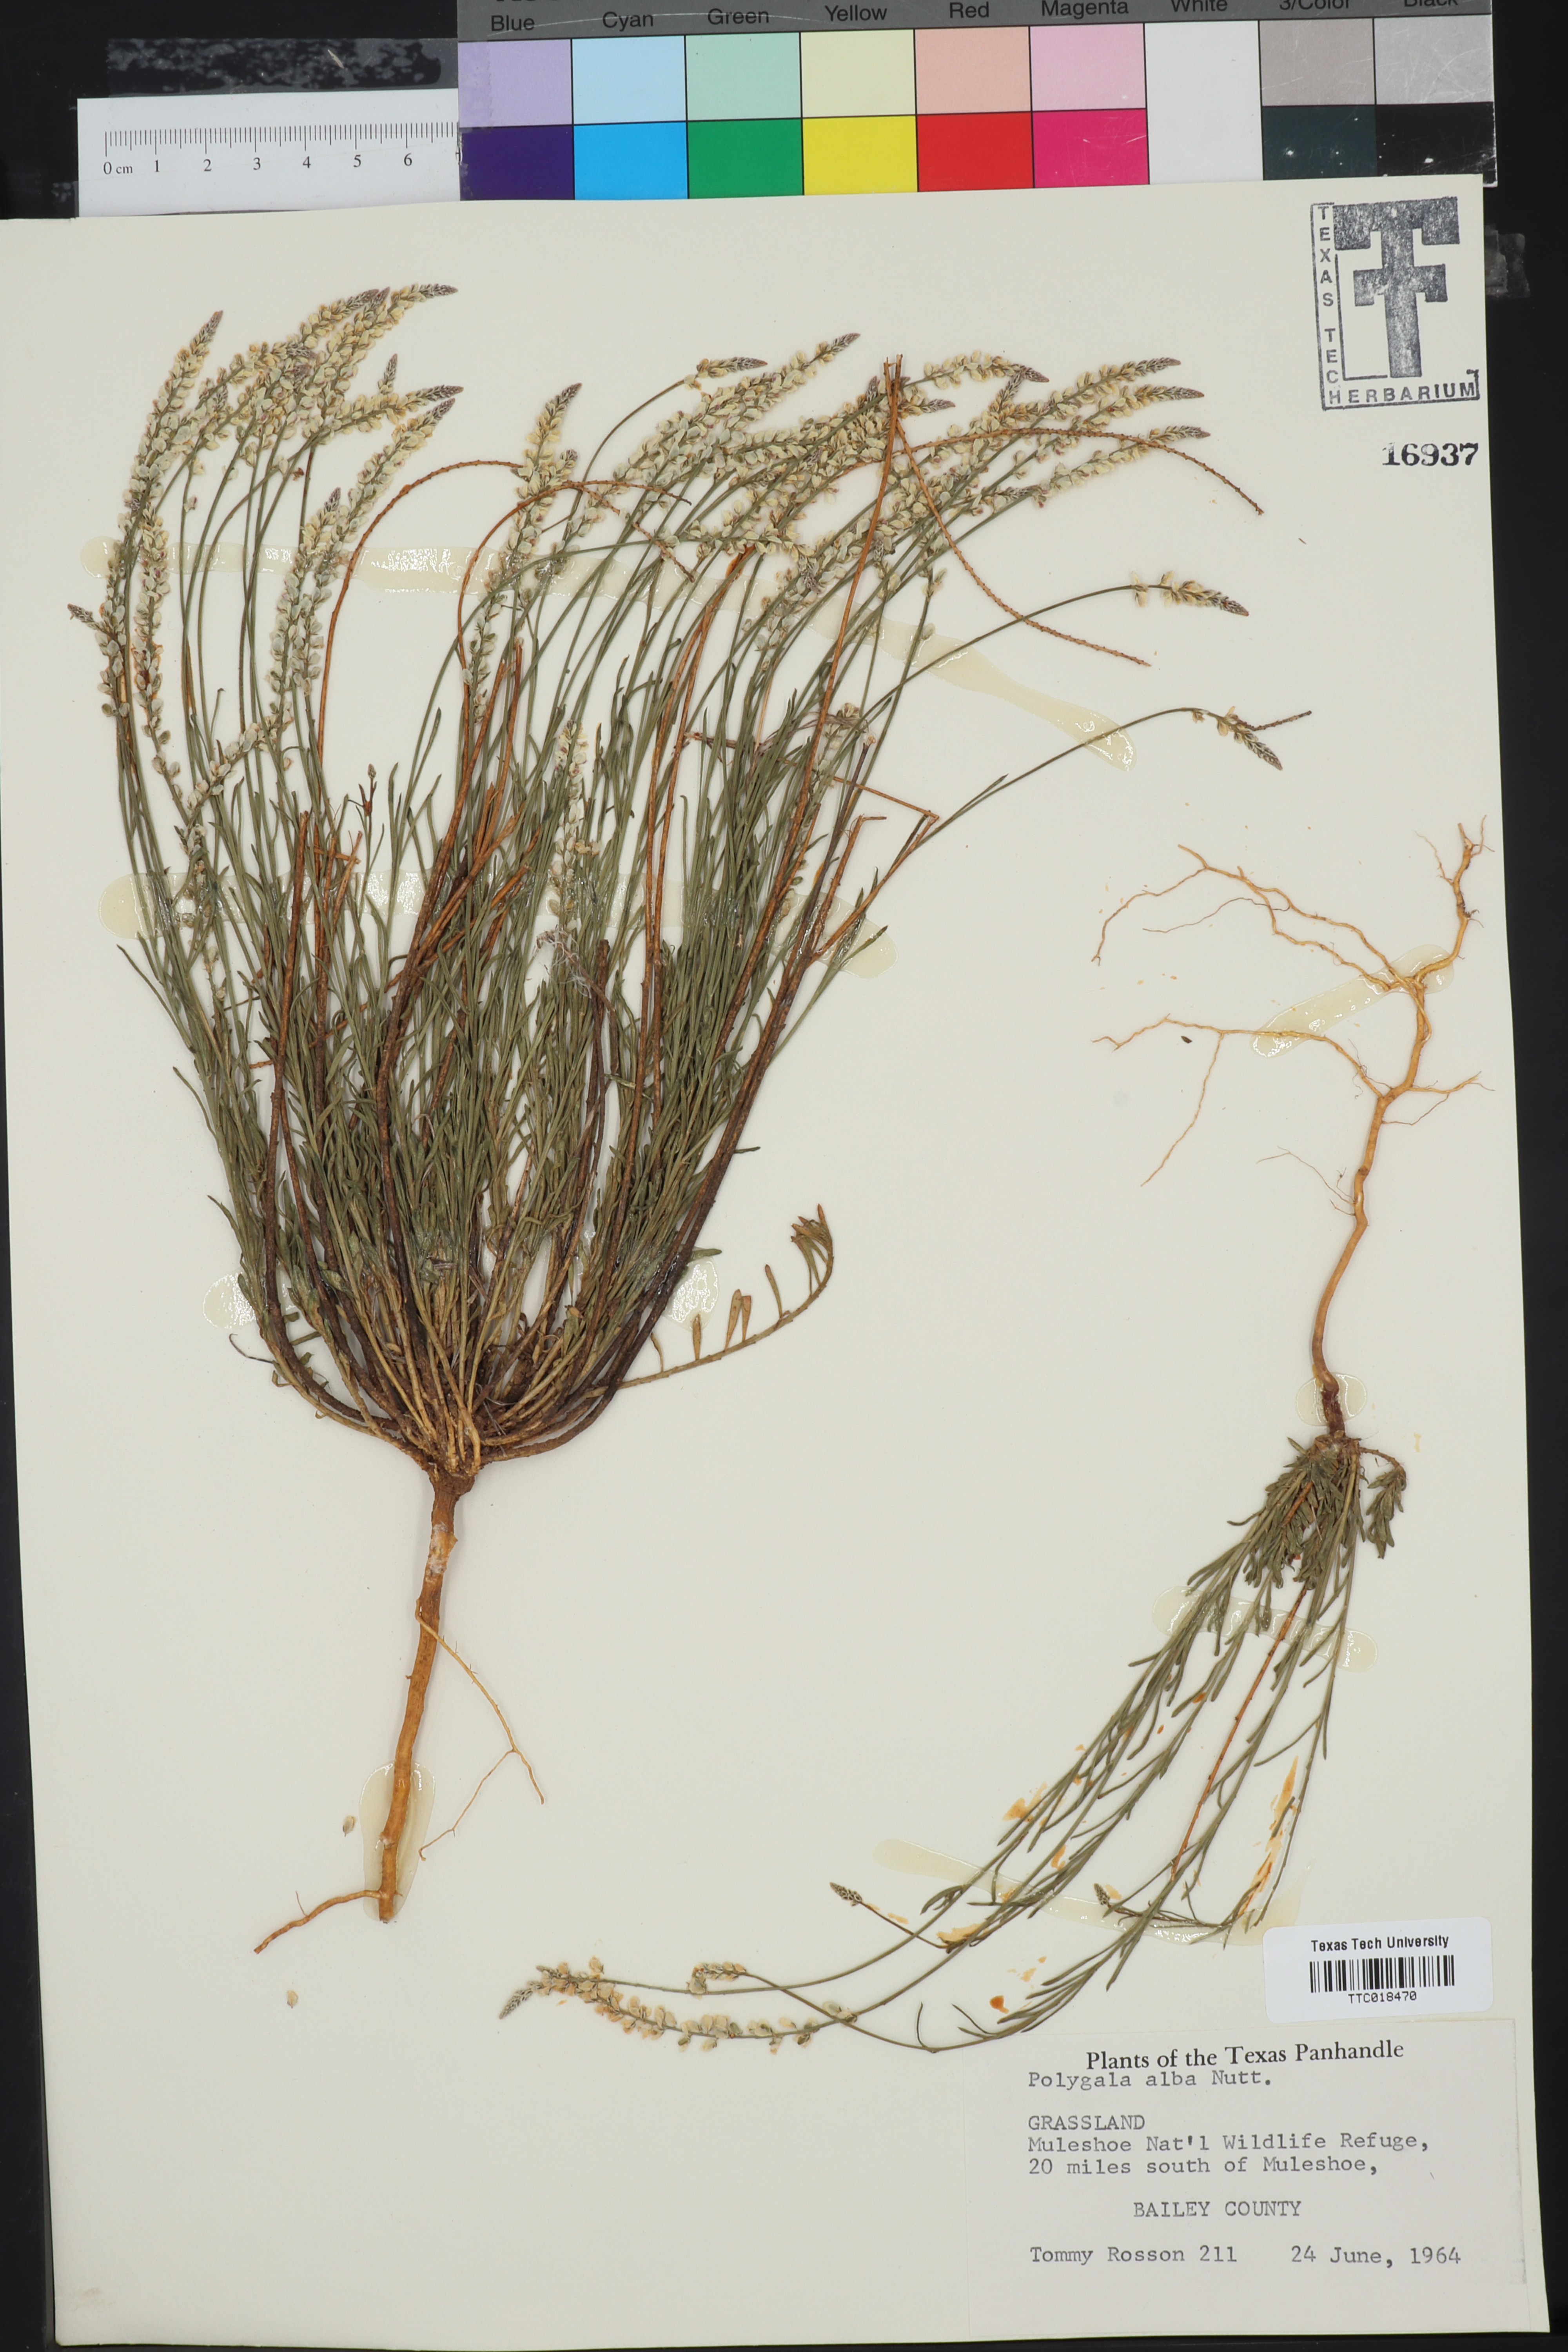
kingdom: Plantae
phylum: Tracheophyta
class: Magnoliopsida
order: Fabales
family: Polygalaceae
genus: Polygala
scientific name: Polygala alba
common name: White milkwort
